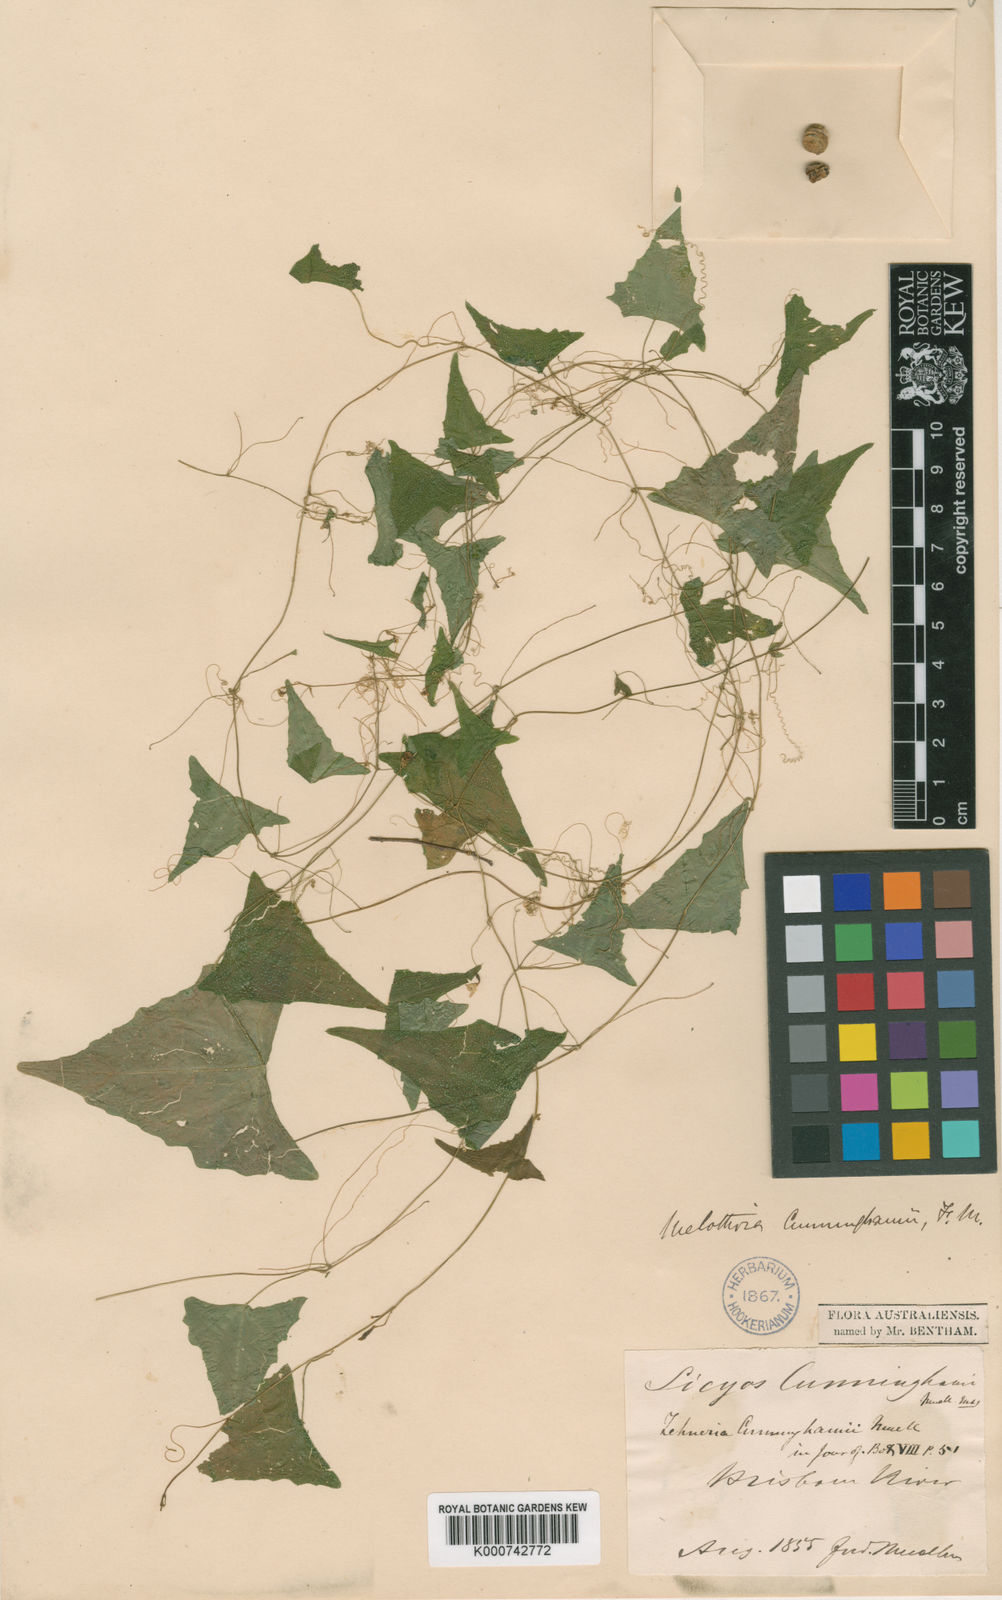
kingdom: Plantae
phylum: Tracheophyta
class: Magnoliopsida
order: Cucurbitales
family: Cucurbitaceae
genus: Zehneria
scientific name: Zehneria cunninghamii
